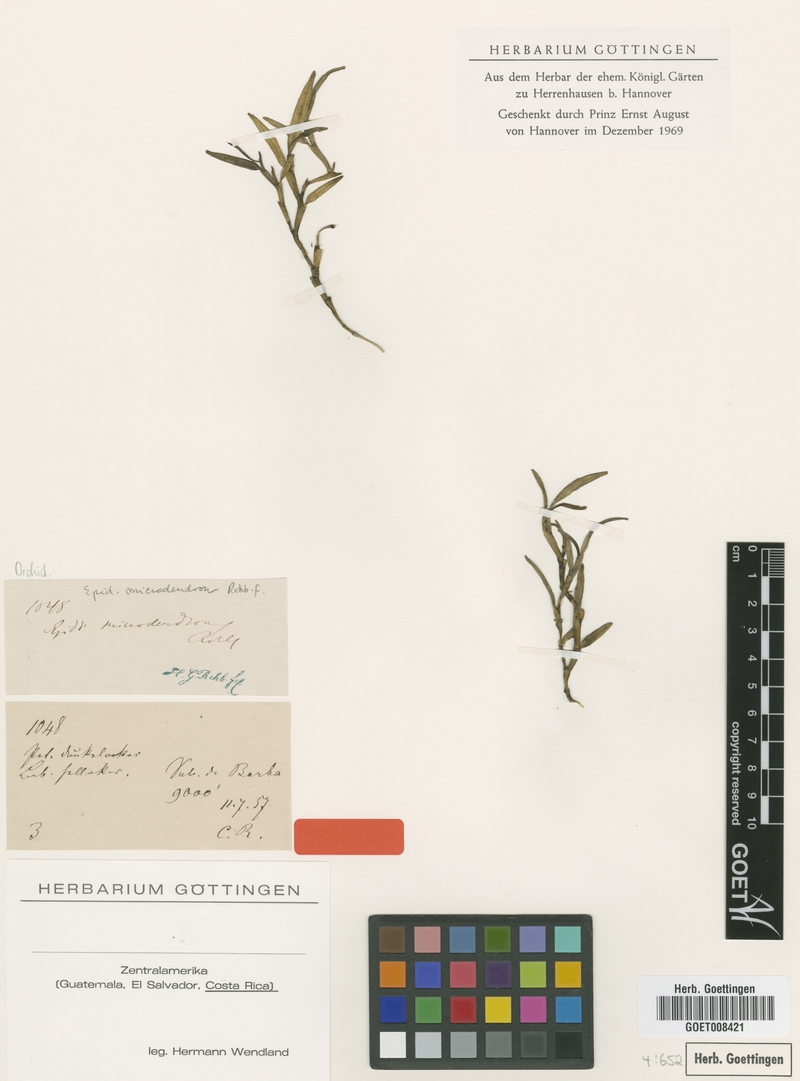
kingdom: Plantae
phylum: Tracheophyta
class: Liliopsida
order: Asparagales
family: Orchidaceae
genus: Epidendrum
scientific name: Epidendrum microdendron
